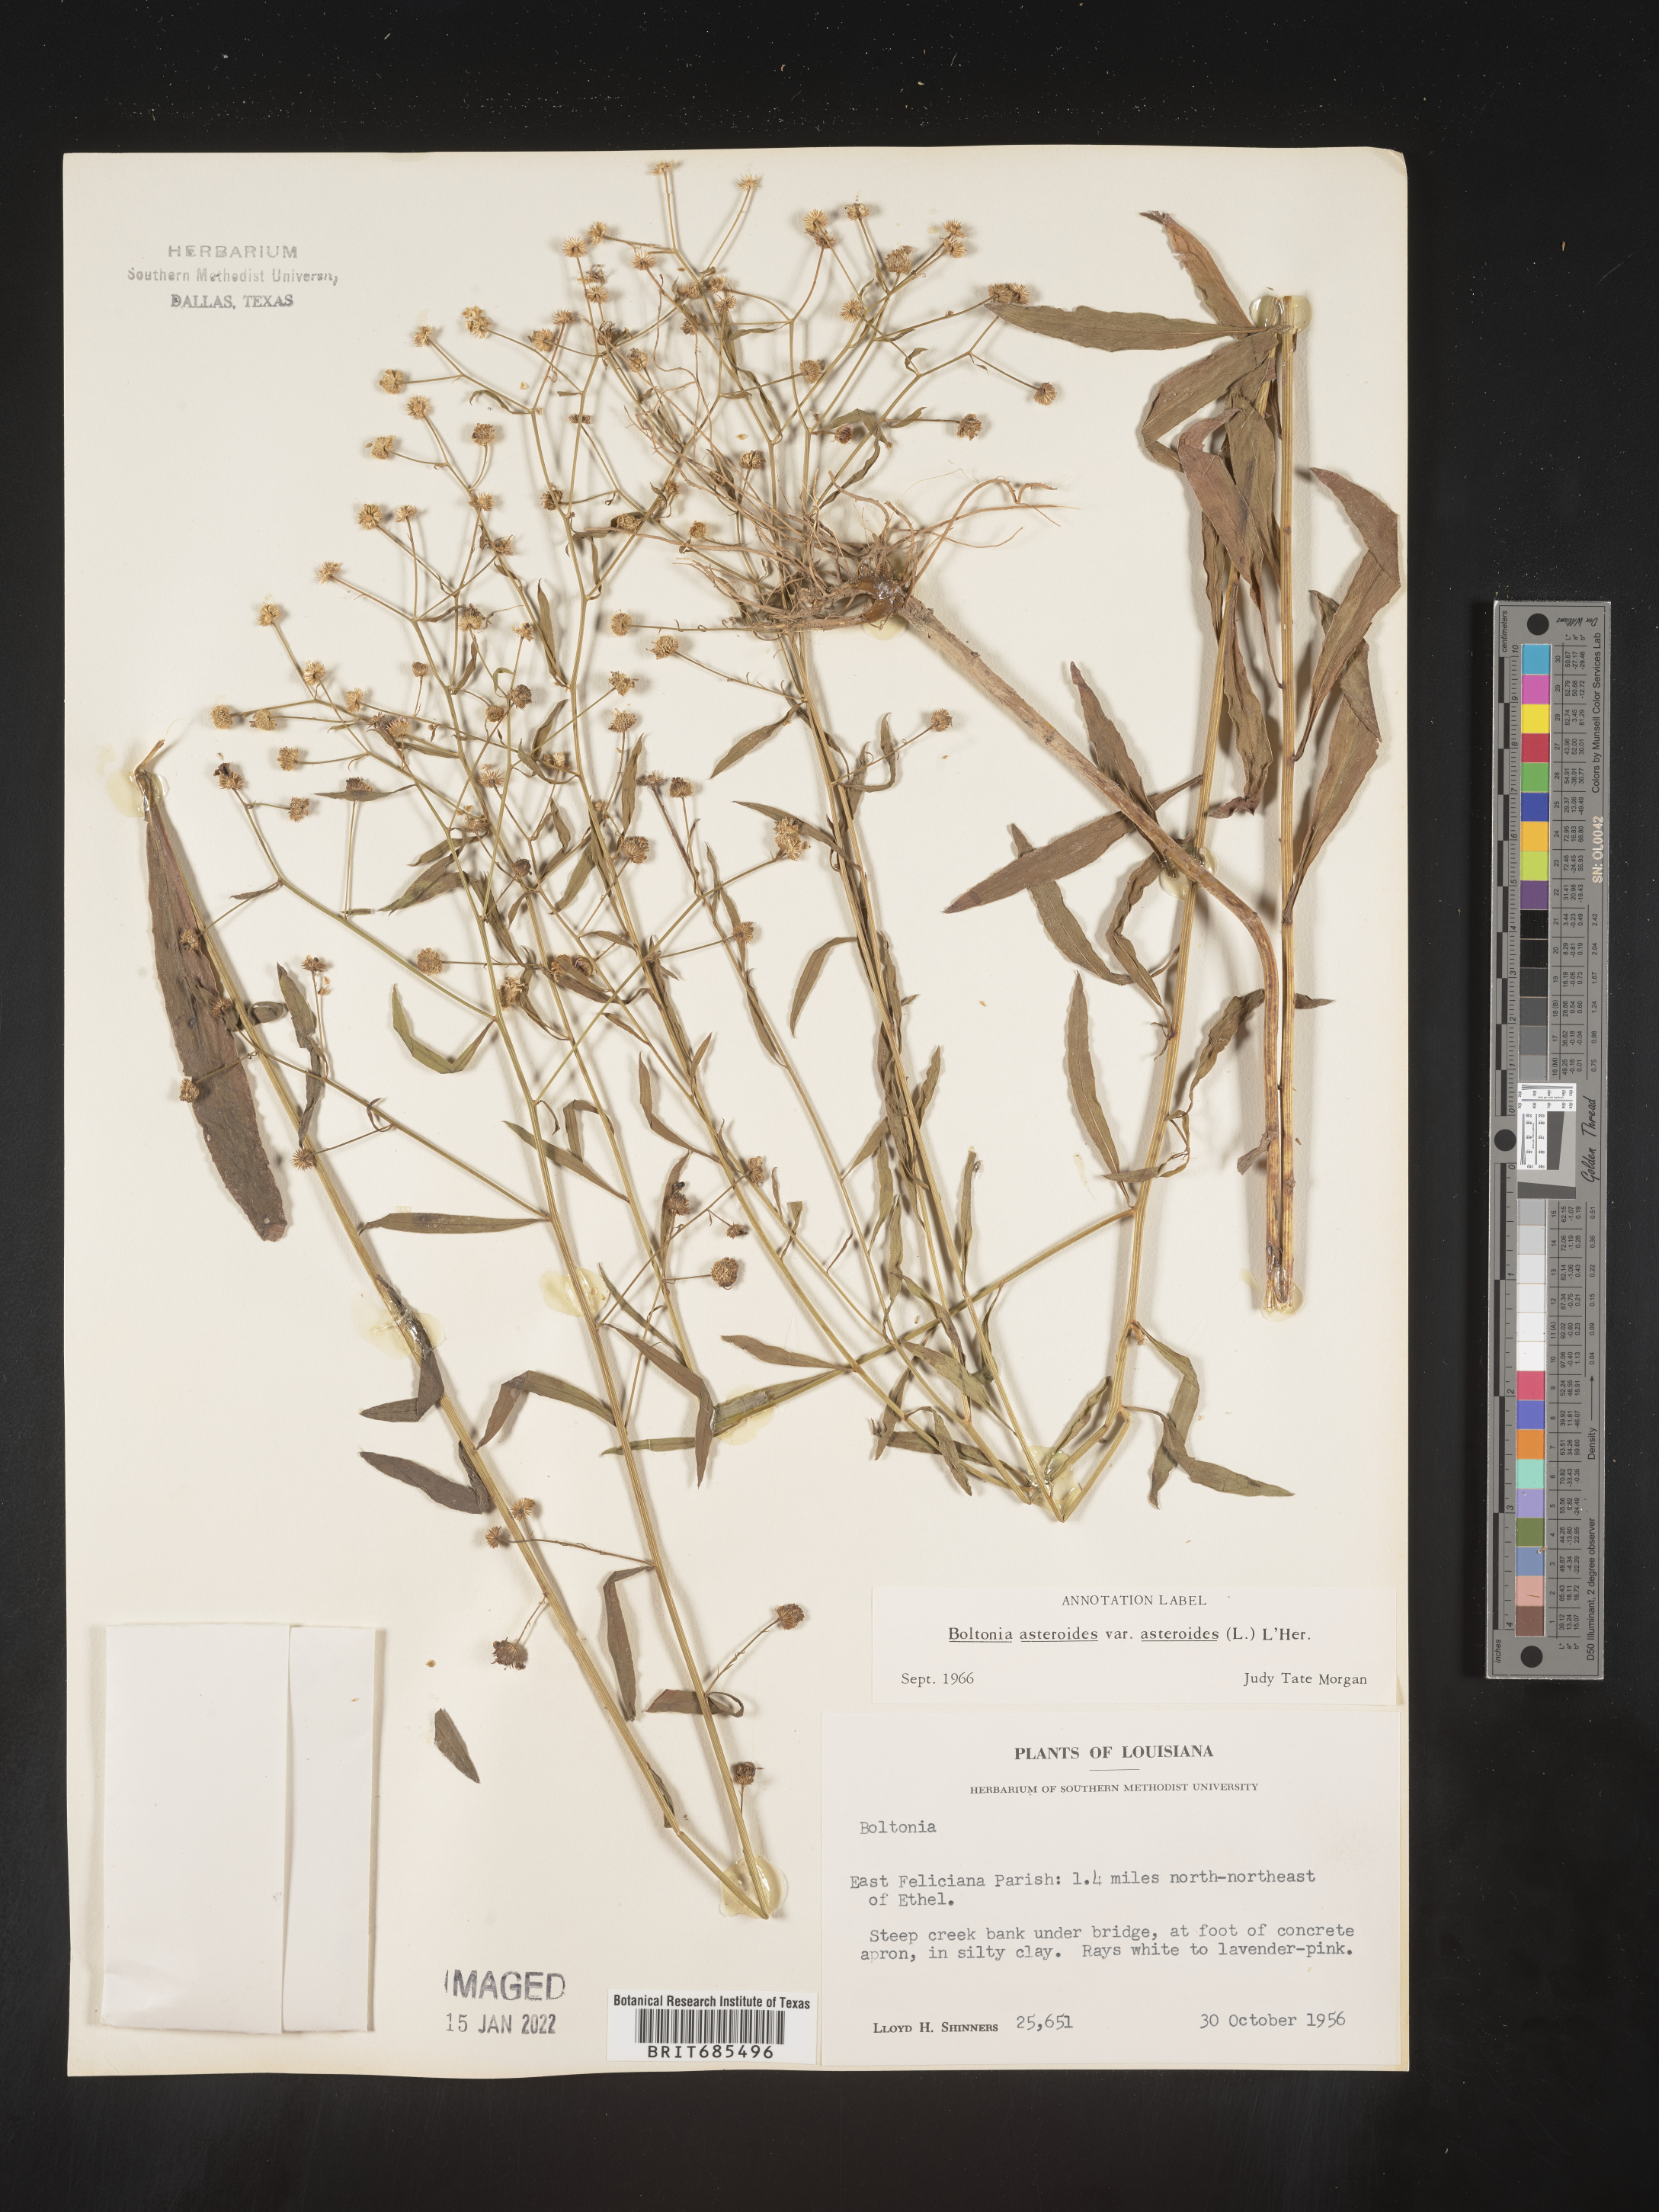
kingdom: Plantae
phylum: Tracheophyta
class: Magnoliopsida
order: Asterales
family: Asteraceae
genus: Boltonia
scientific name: Boltonia asteroides
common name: False chamomile
